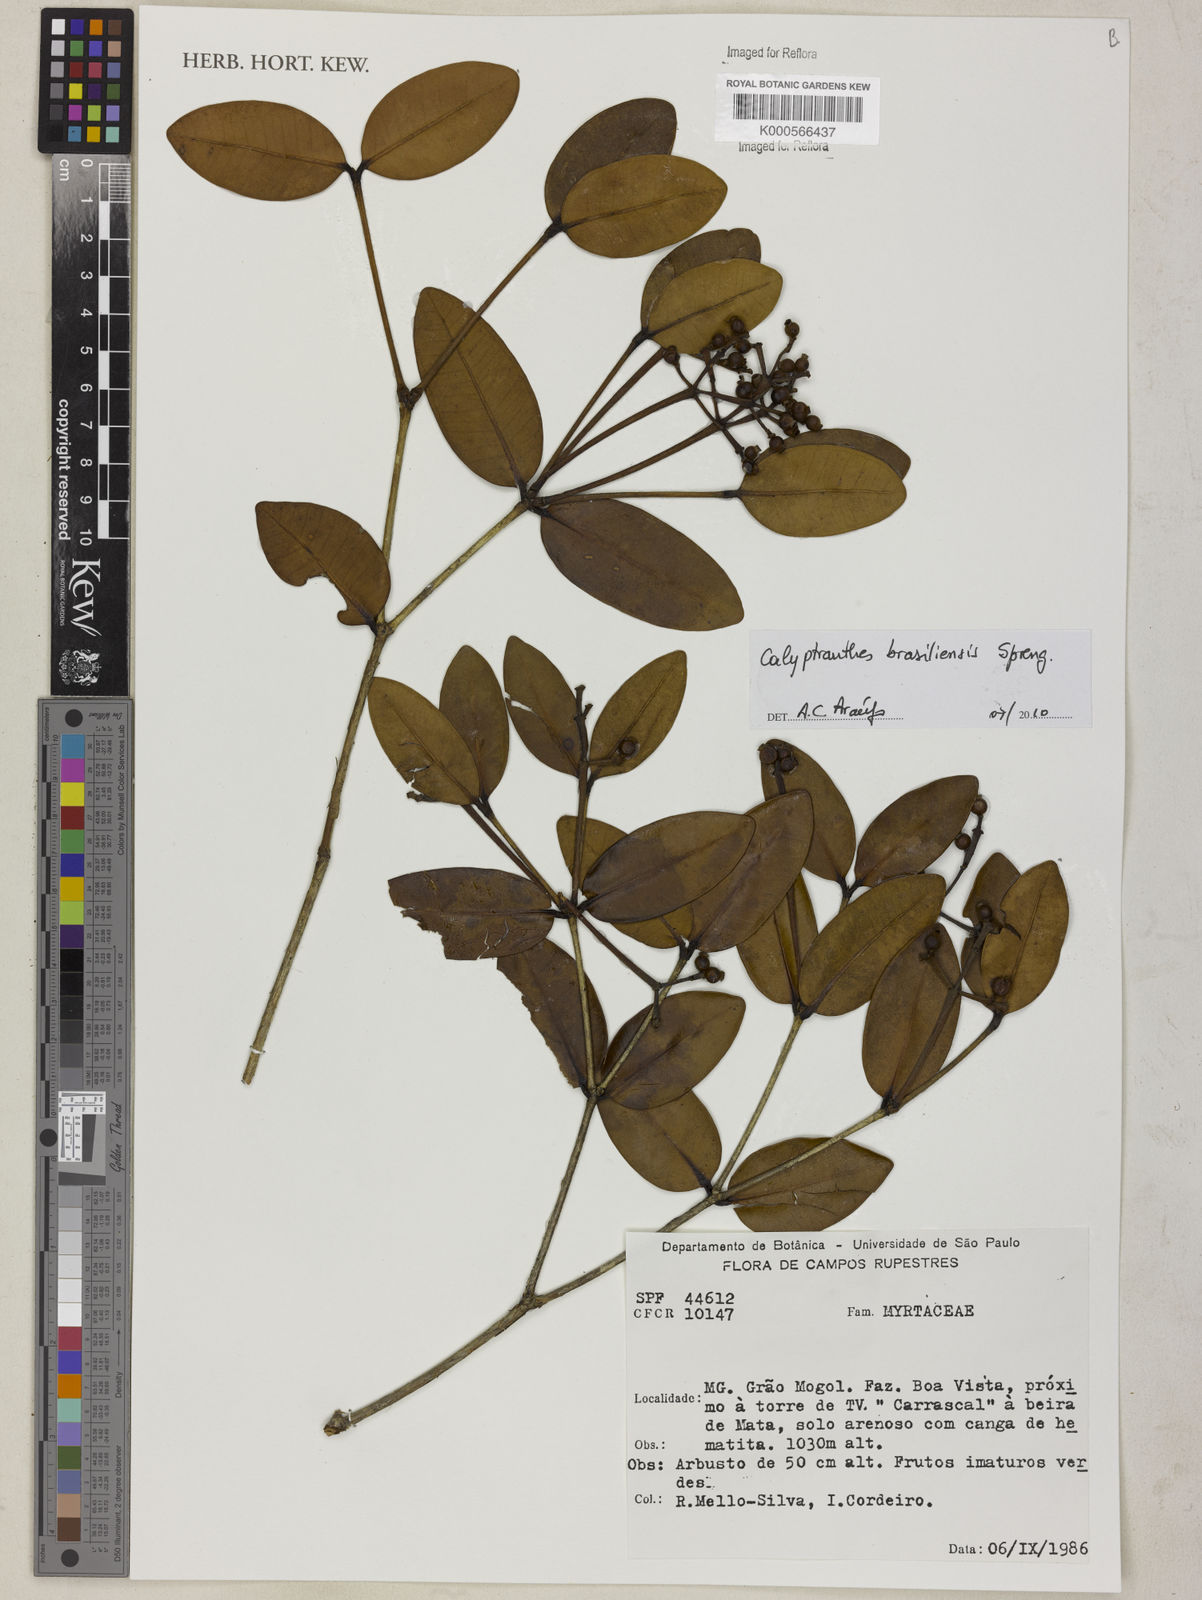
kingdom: Plantae
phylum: Tracheophyta
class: Magnoliopsida
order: Myrtales
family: Myrtaceae
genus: Myrcia
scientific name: Myrcia neobrasiliensis
